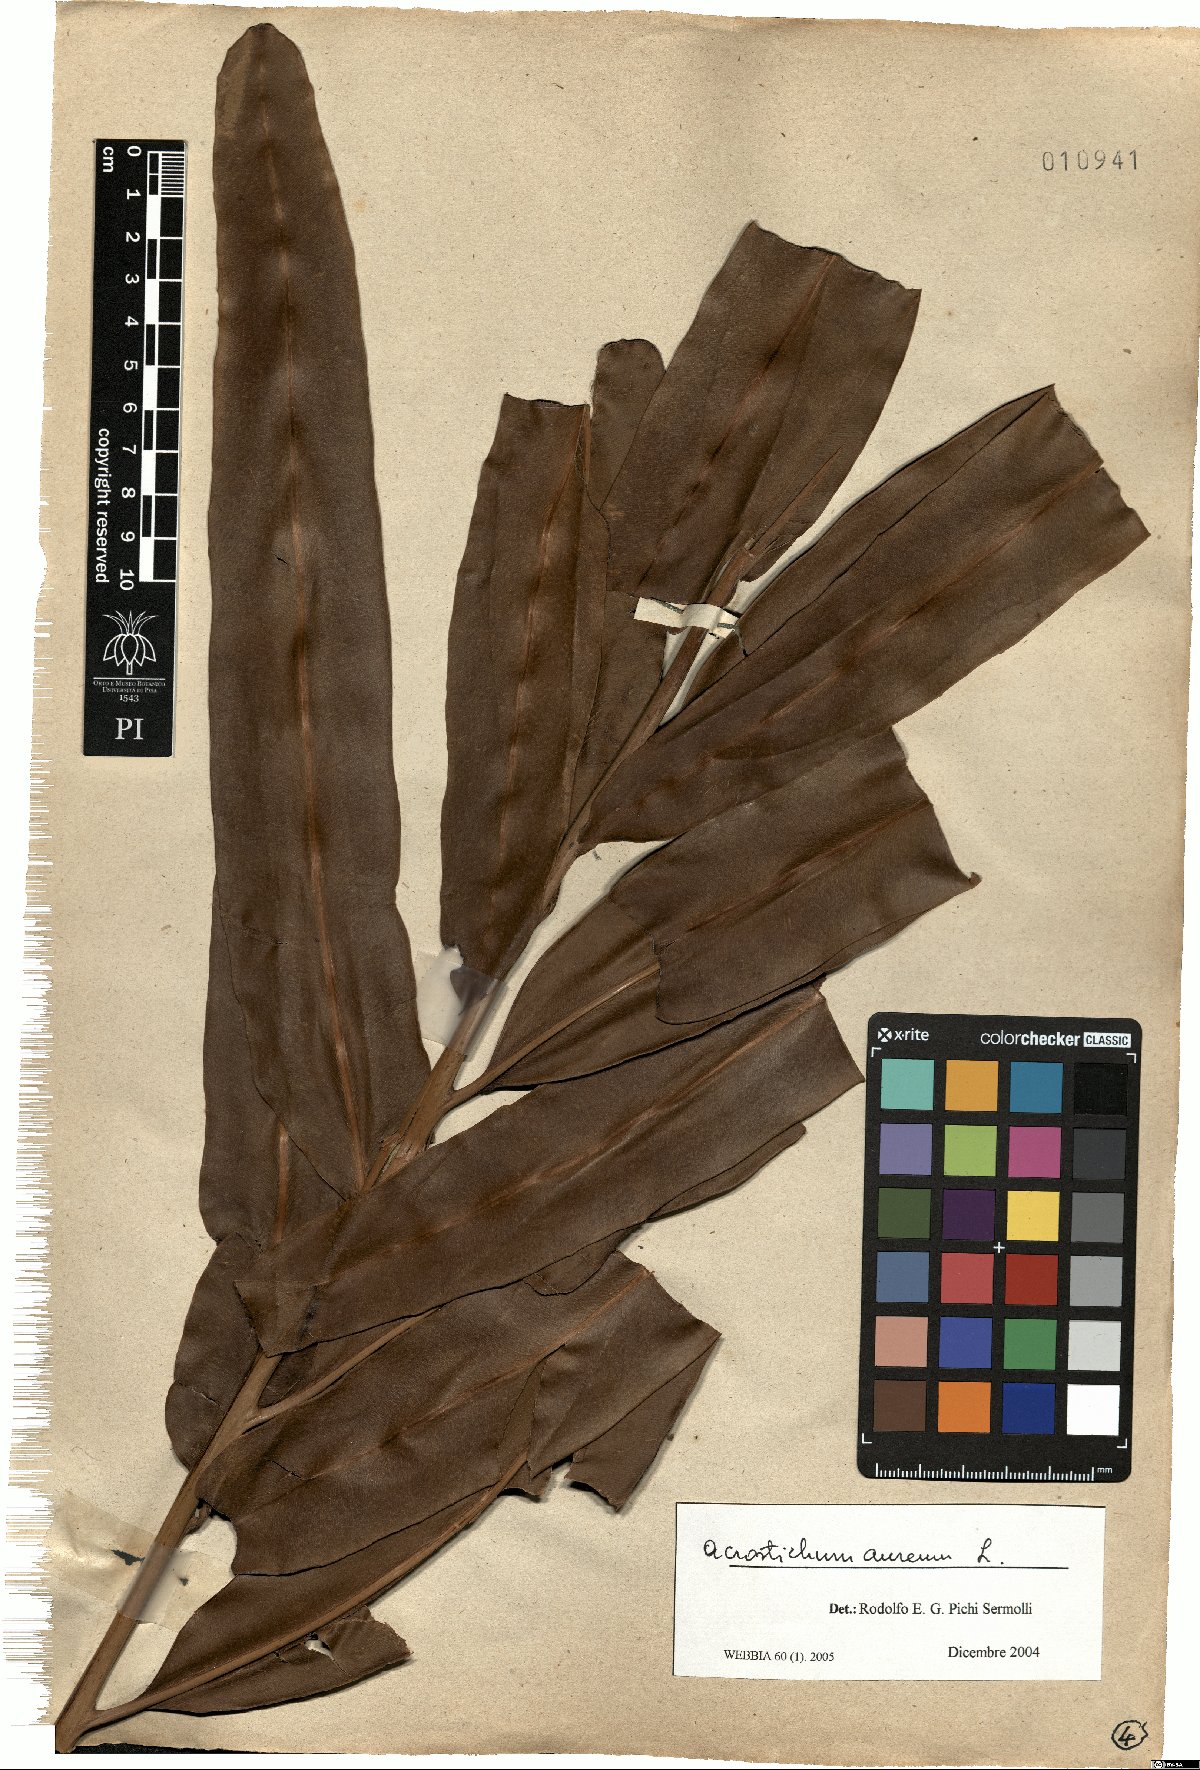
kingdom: Plantae
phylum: Tracheophyta
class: Polypodiopsida
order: Polypodiales
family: Pteridaceae
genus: Acrostichum
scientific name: Acrostichum aureum
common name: Leather fern
